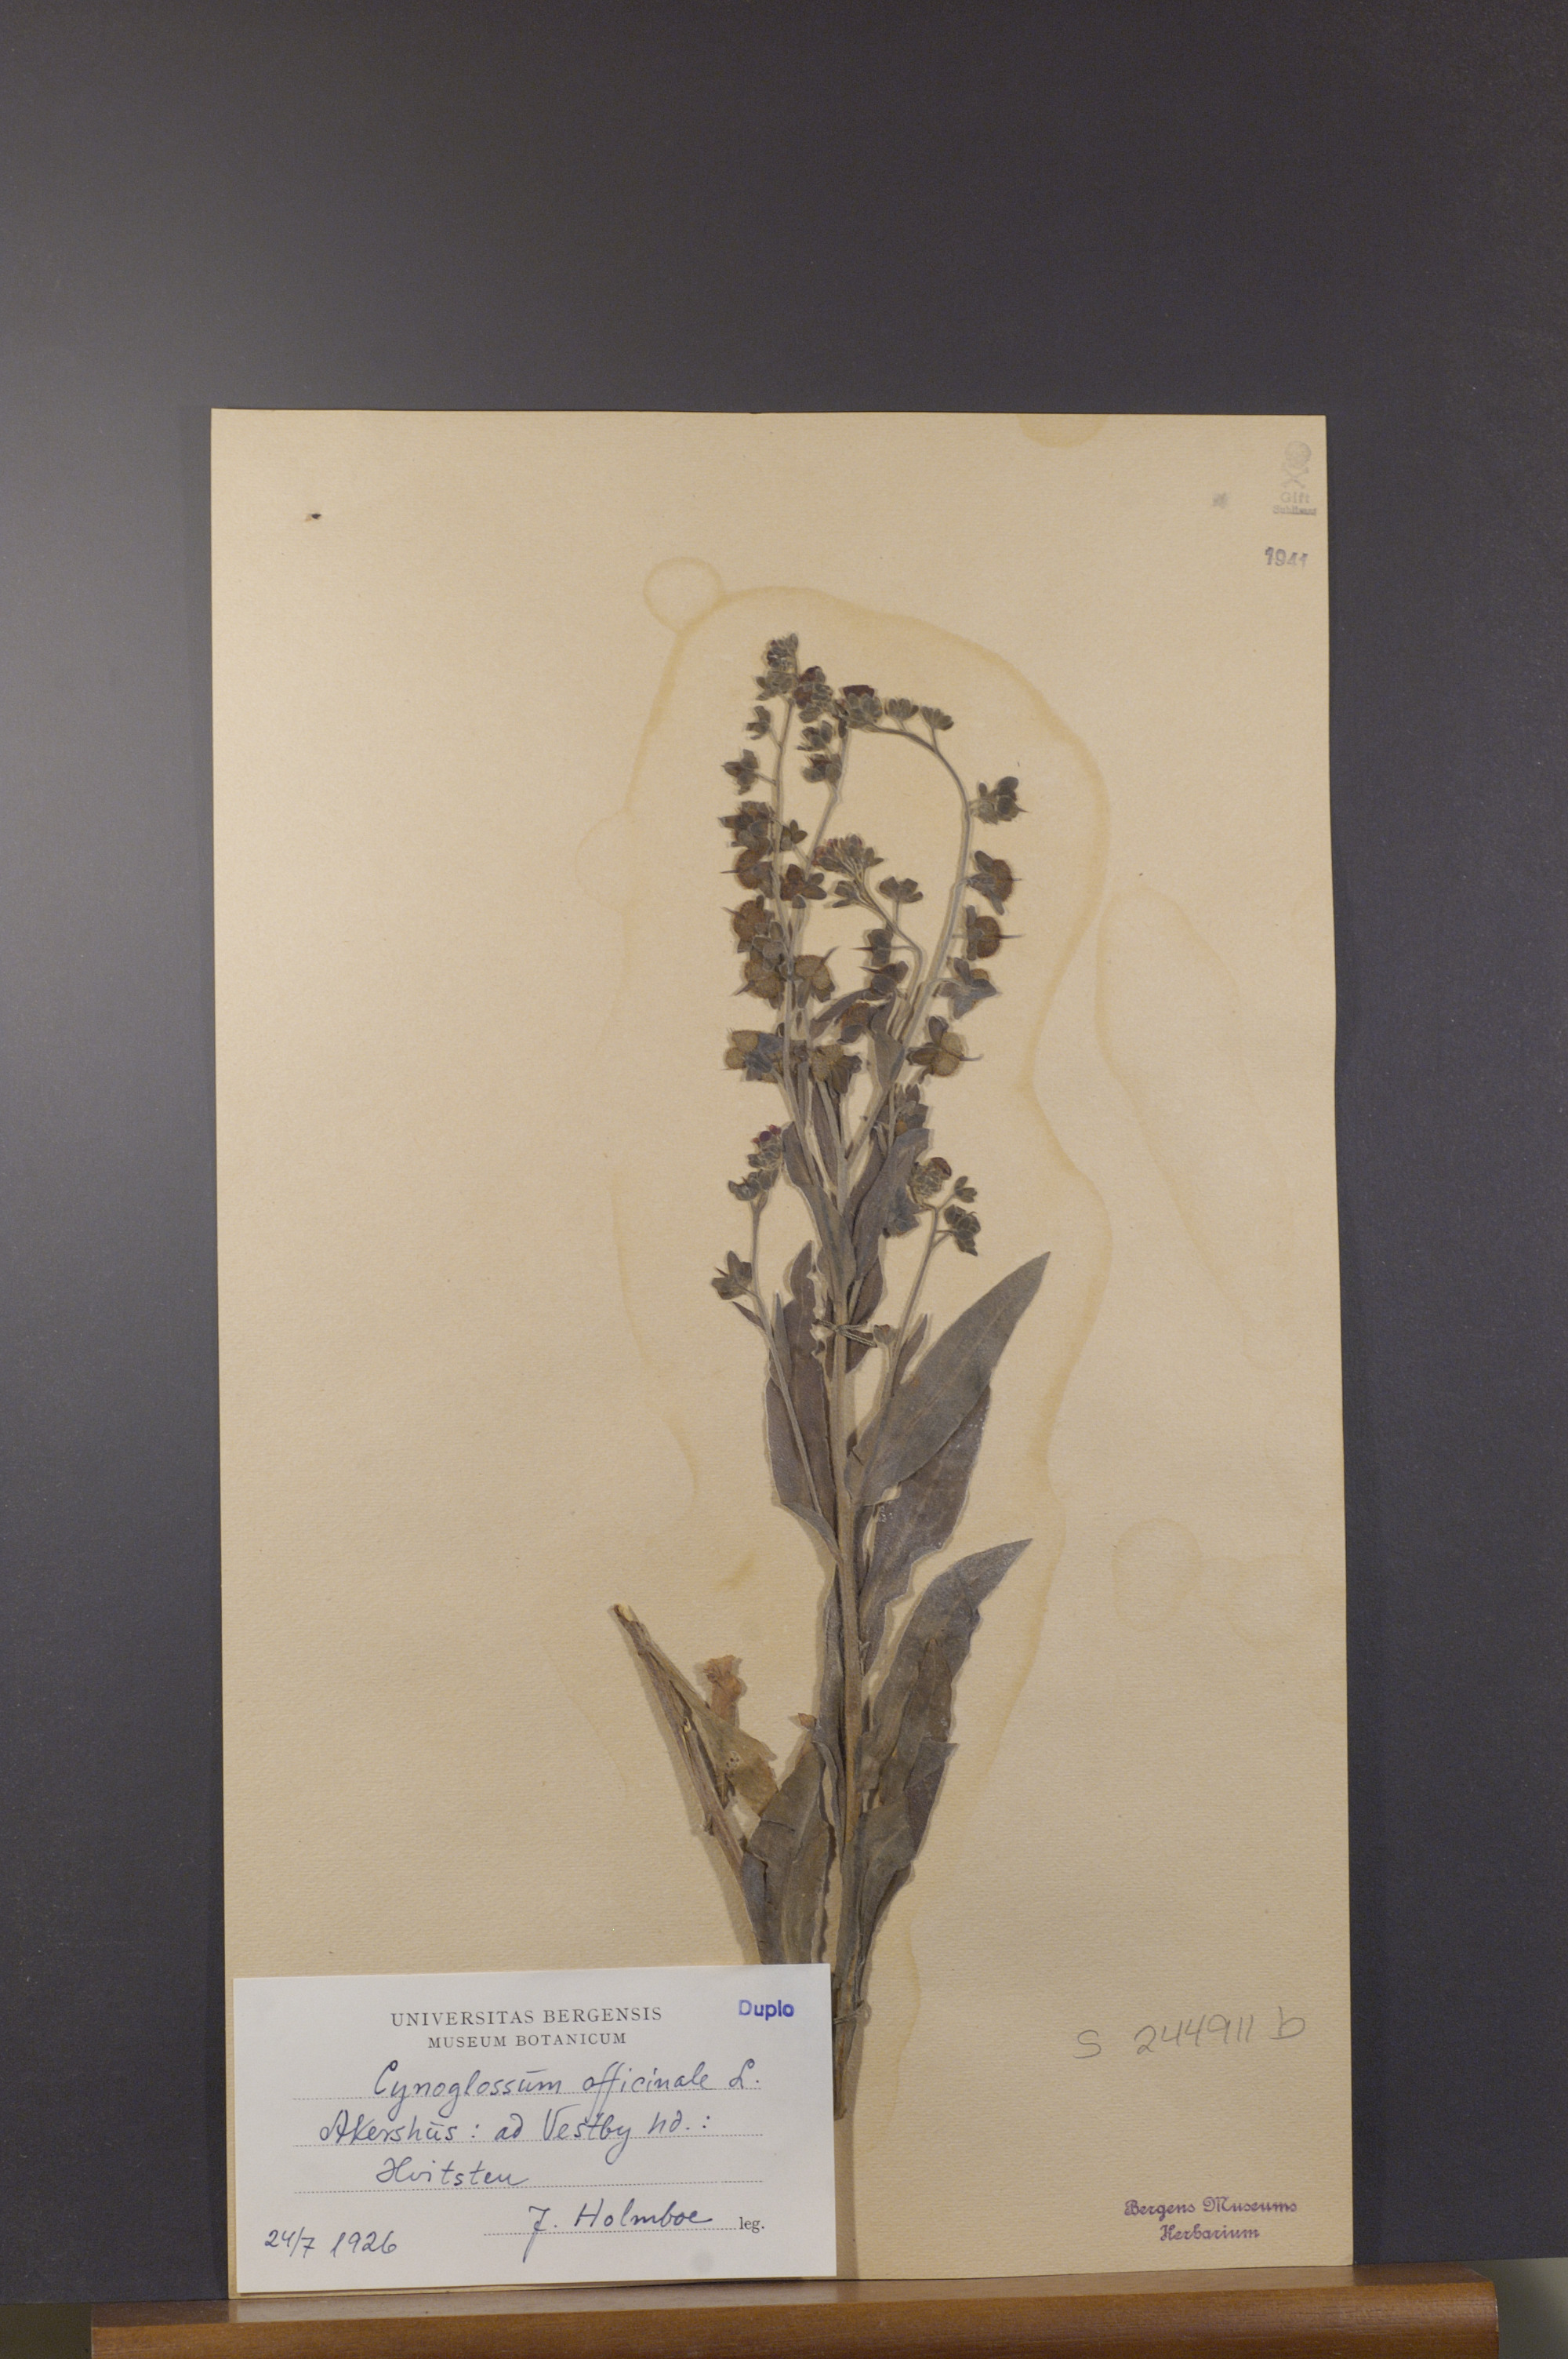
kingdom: Plantae
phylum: Tracheophyta
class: Magnoliopsida
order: Boraginales
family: Boraginaceae
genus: Cynoglossum
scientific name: Cynoglossum officinale
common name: Hound's-tongue
